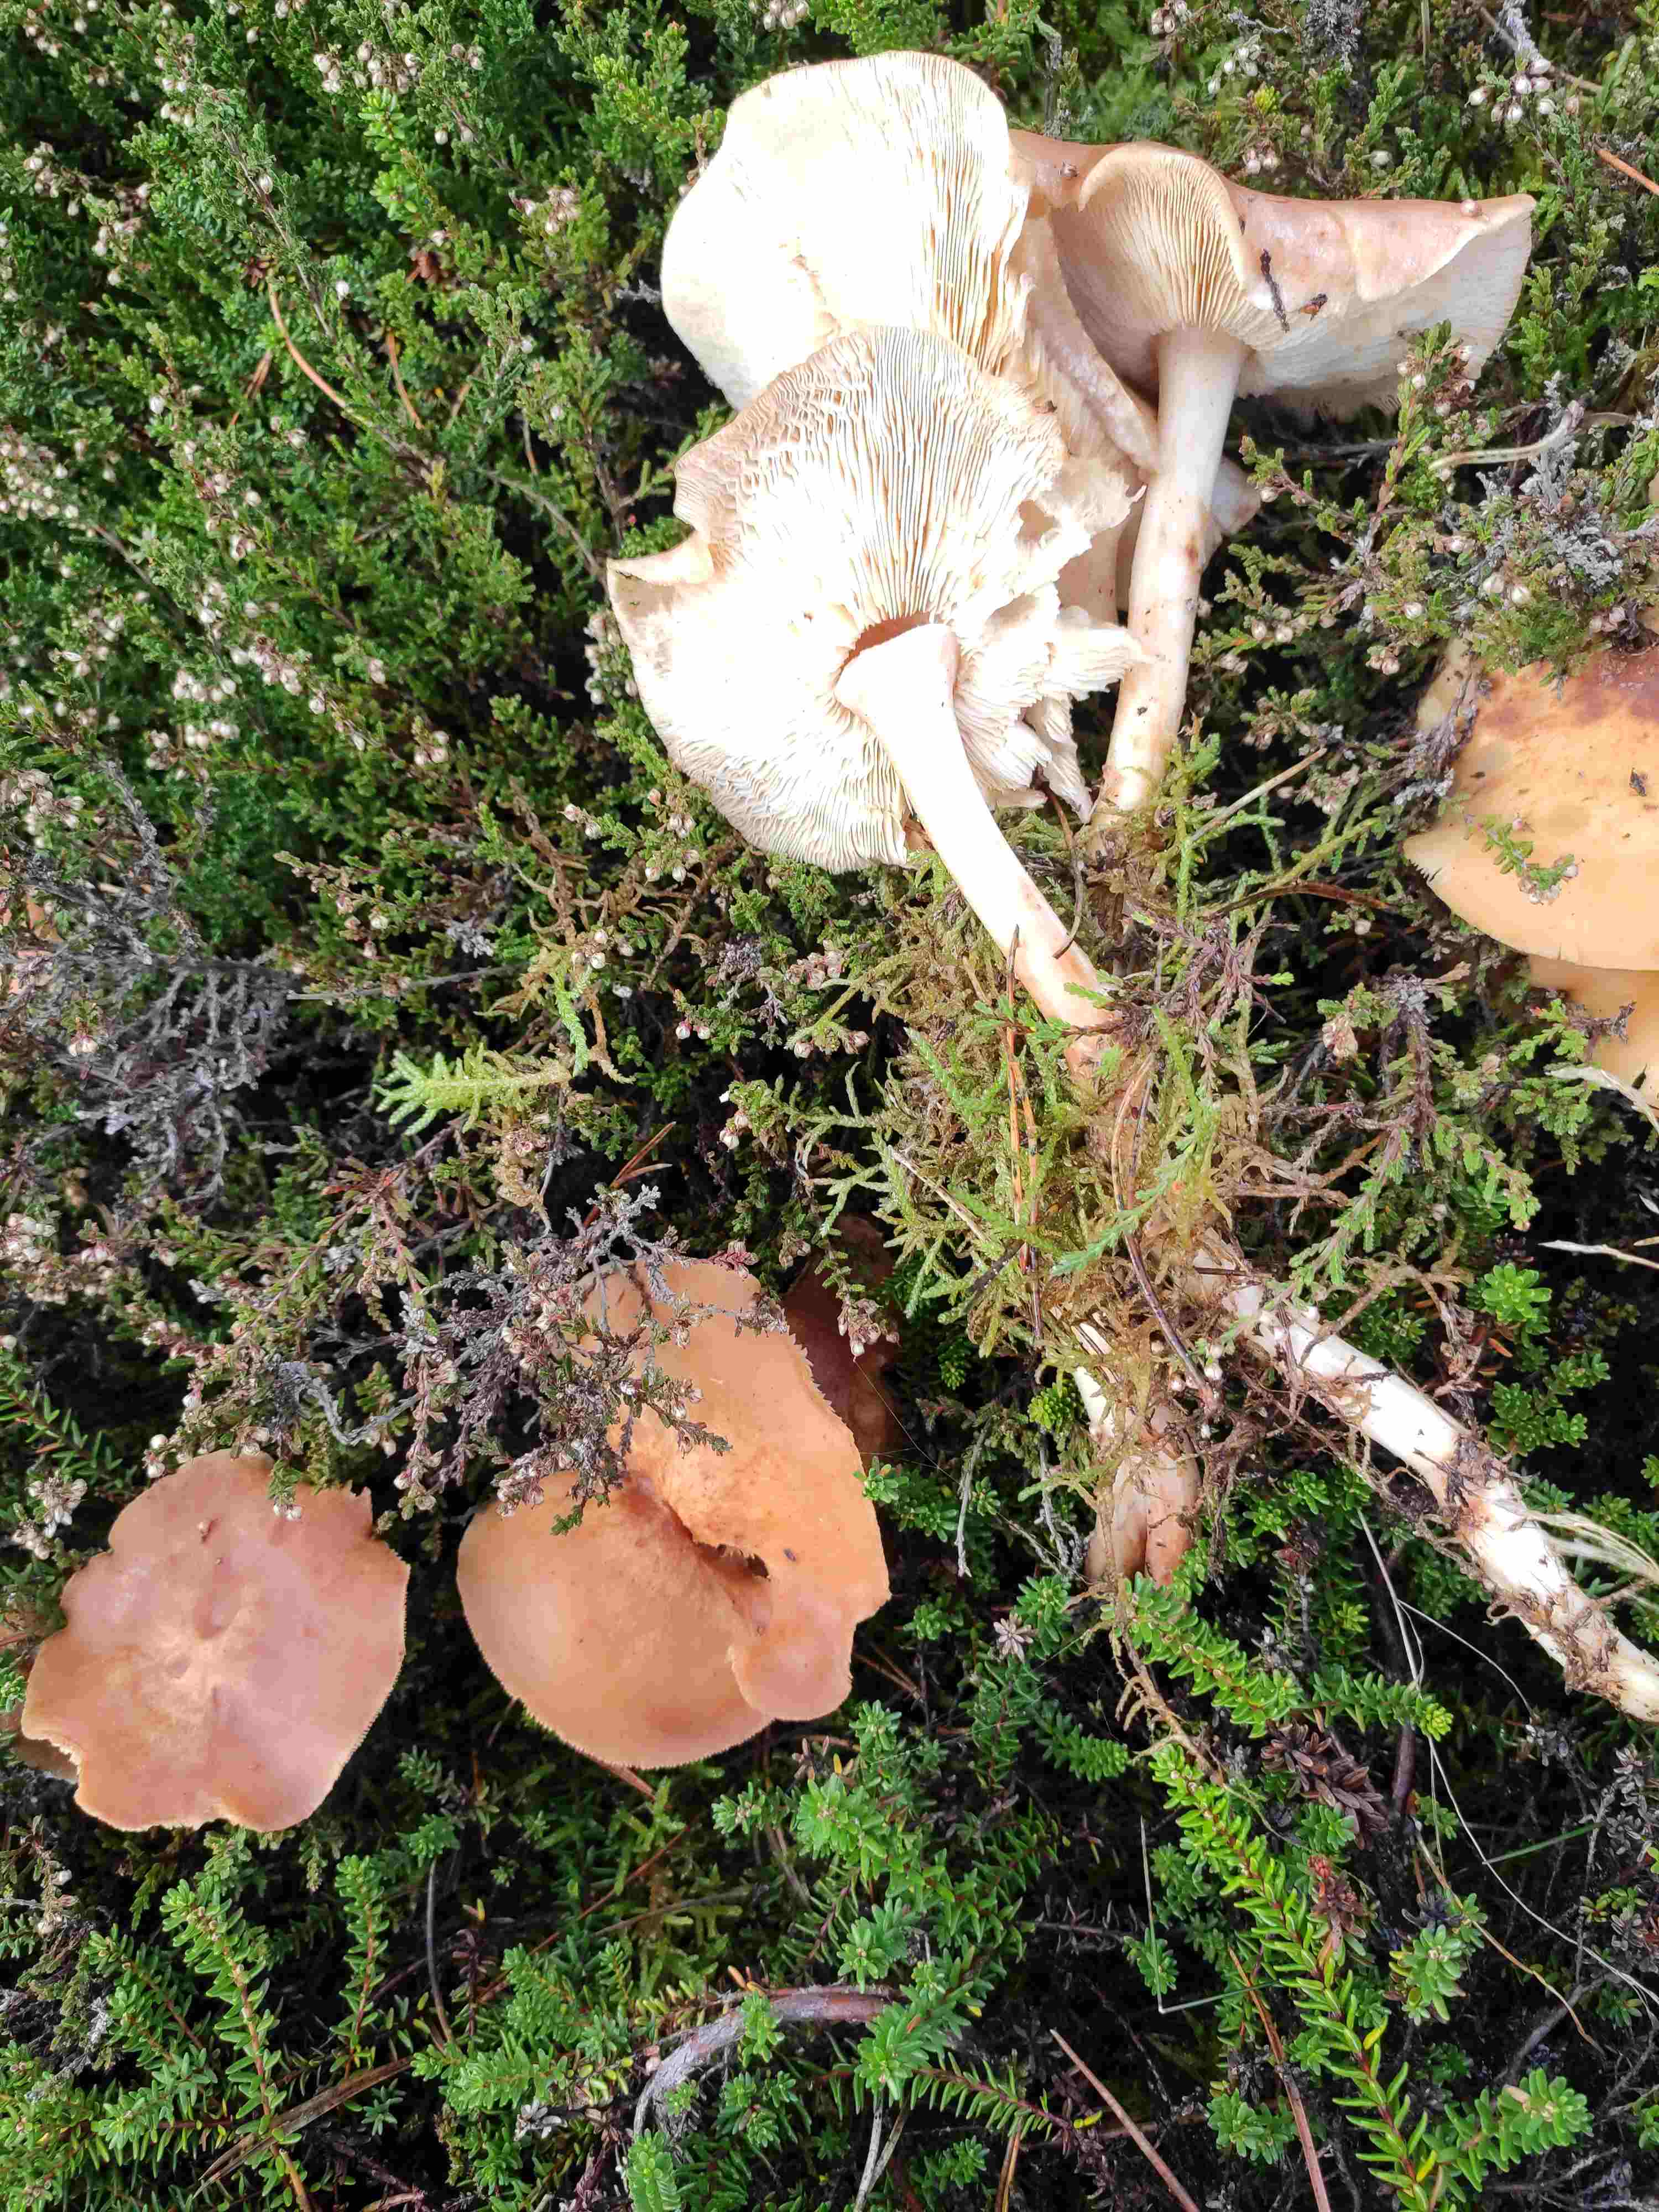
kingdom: Fungi
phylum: Basidiomycota
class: Agaricomycetes
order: Agaricales
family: Omphalotaceae
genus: Rhodocollybia
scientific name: Rhodocollybia maculata
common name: plettet fladhat
